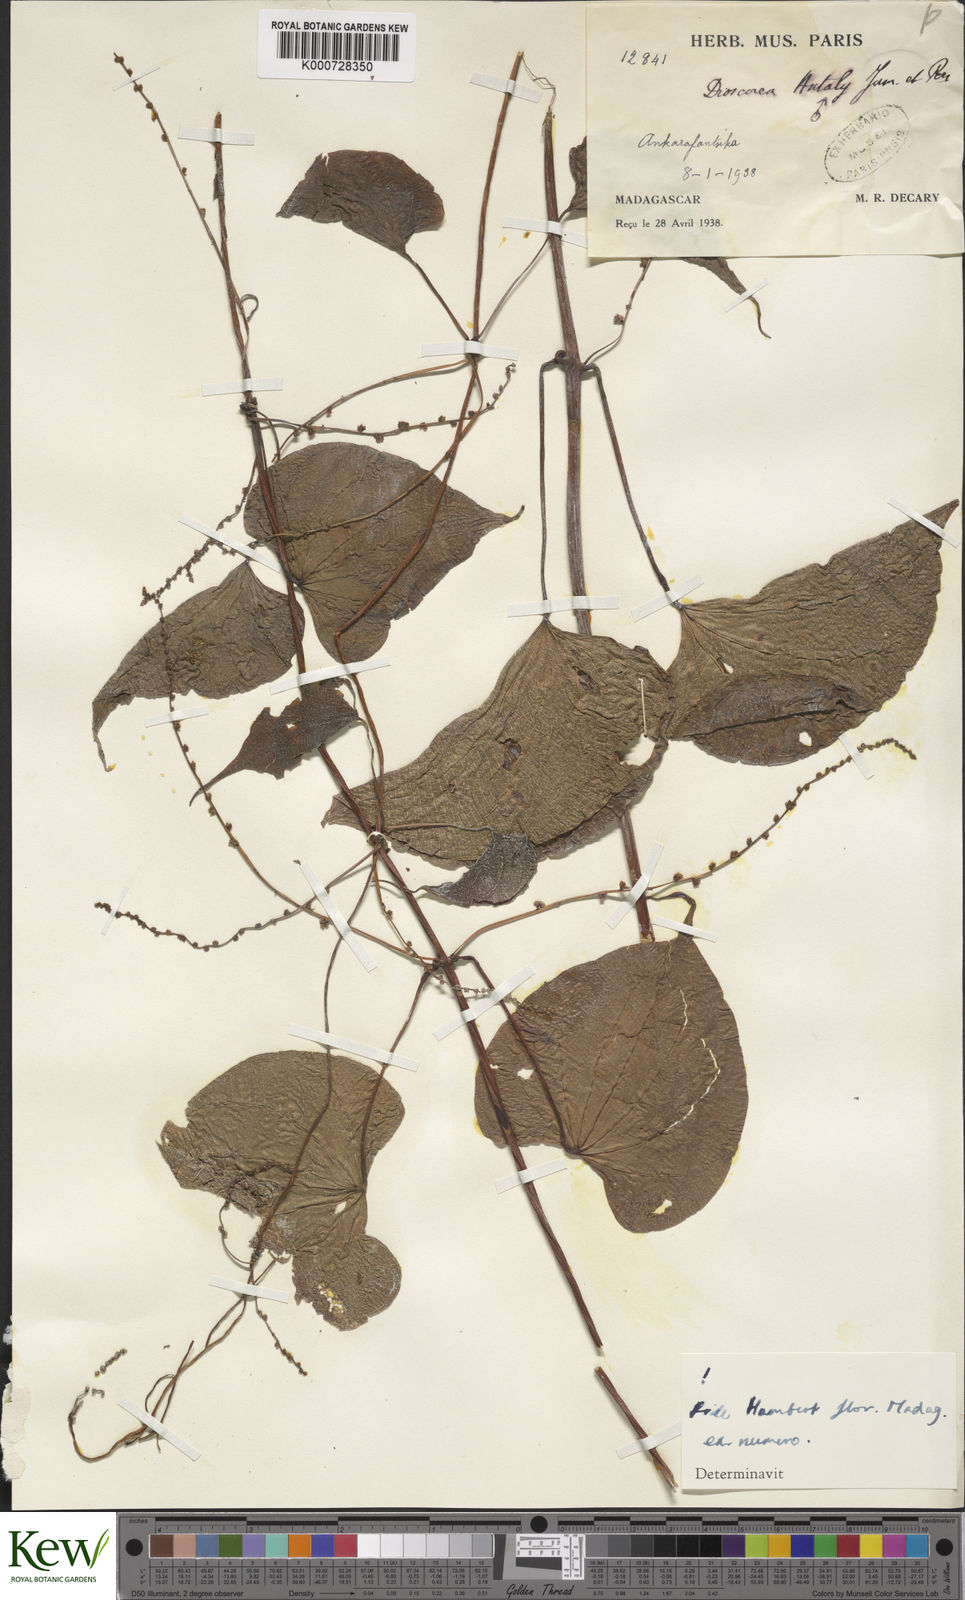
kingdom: Plantae
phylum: Tracheophyta
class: Liliopsida
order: Dioscoreales
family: Dioscoreaceae
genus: Dioscorea
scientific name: Dioscorea antaly
